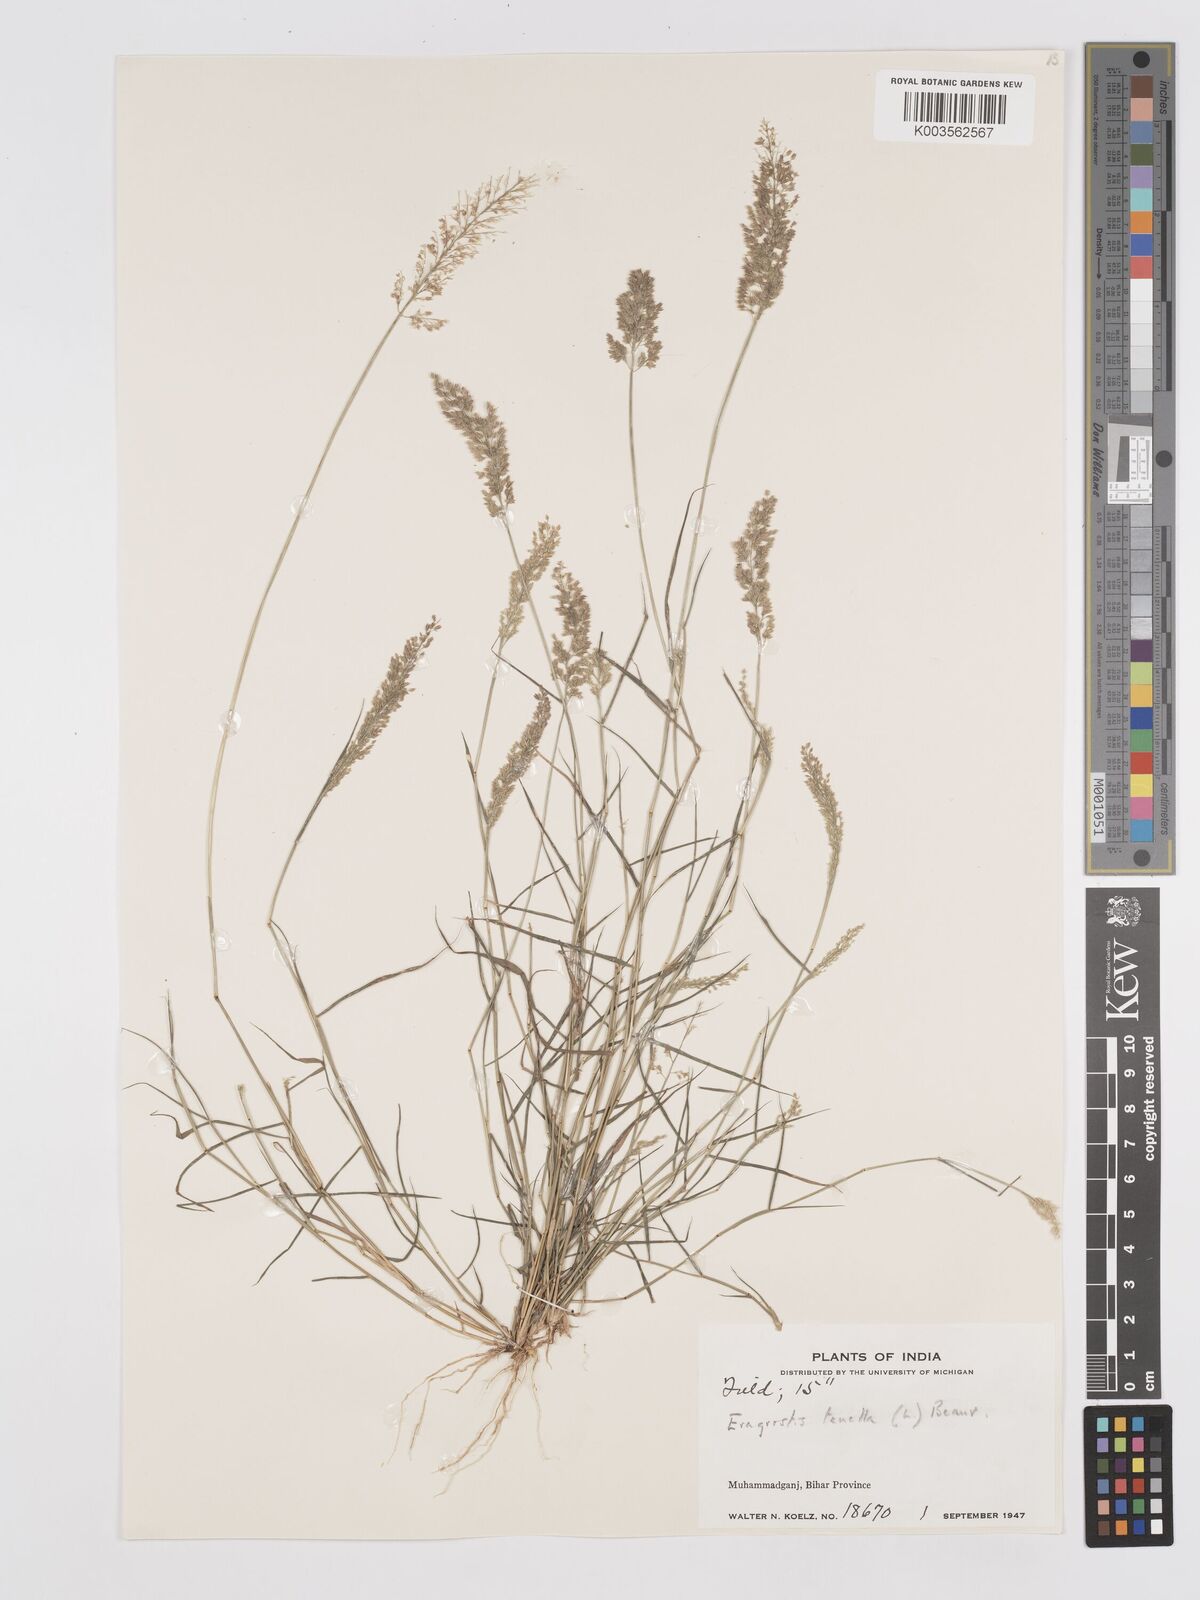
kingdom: Plantae
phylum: Tracheophyta
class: Liliopsida
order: Poales
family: Poaceae
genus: Eragrostis
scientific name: Eragrostis tenella
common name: Japanese lovegrass
